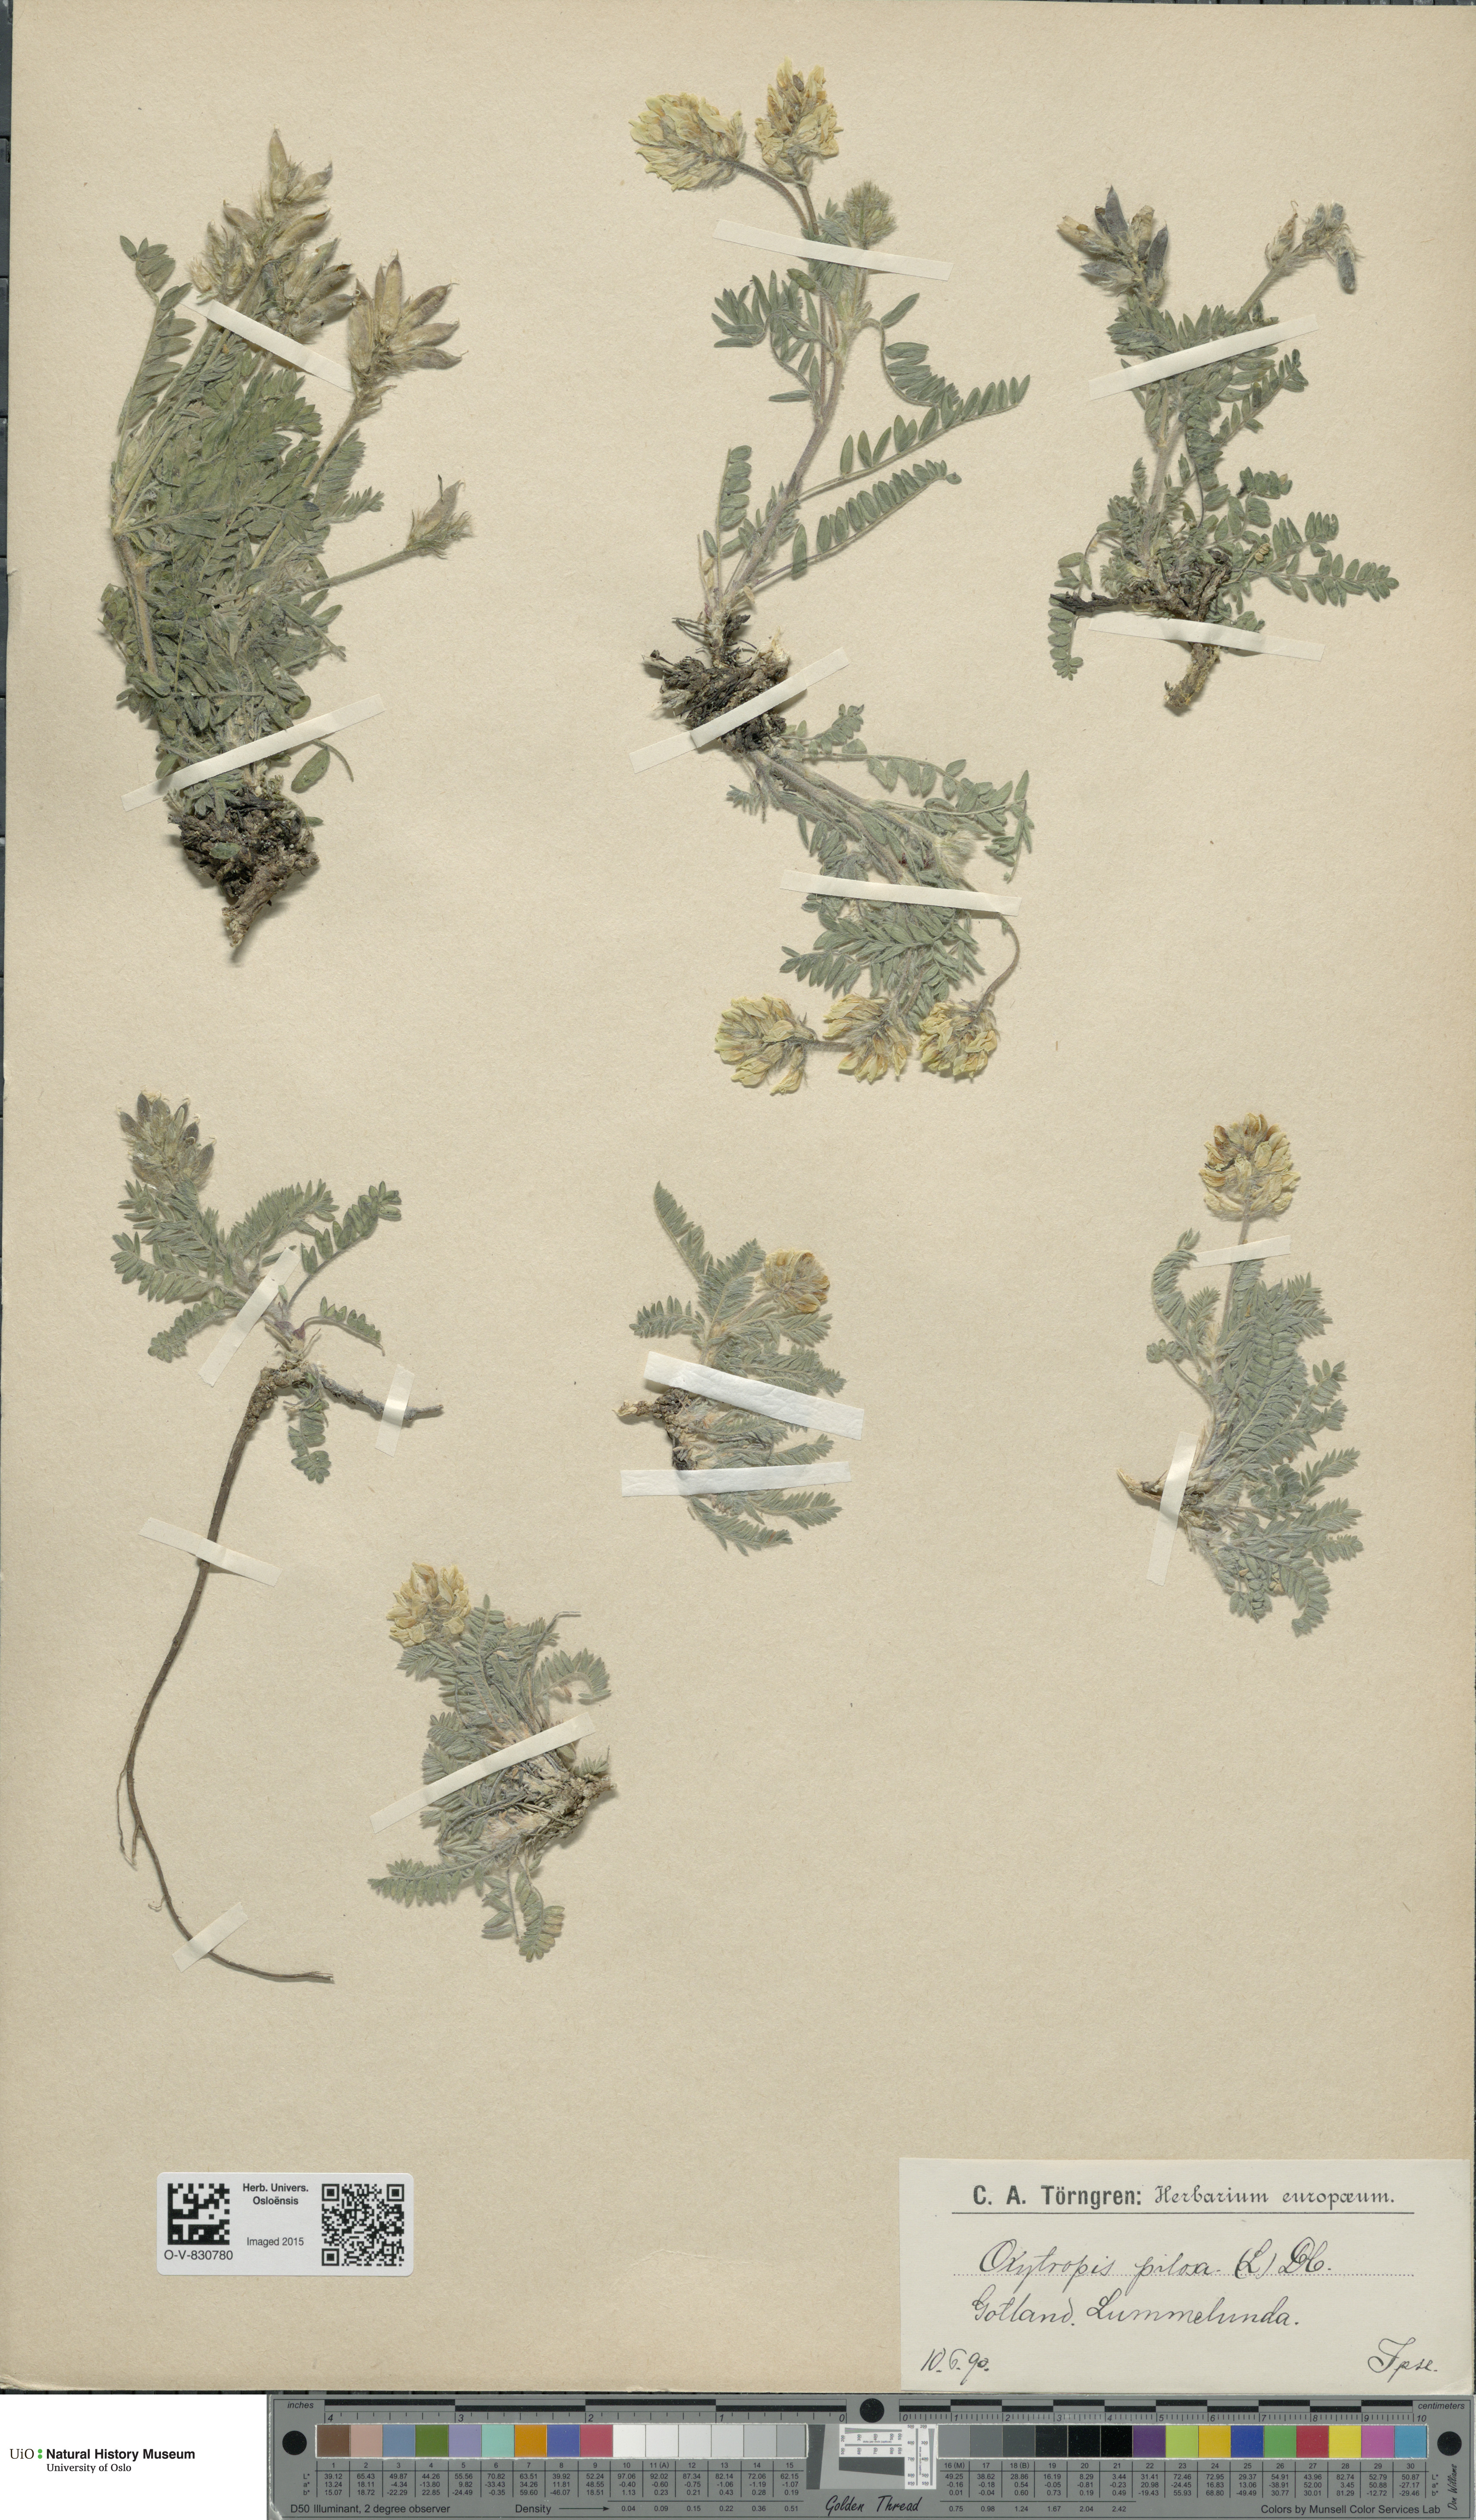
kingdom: Plantae
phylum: Tracheophyta
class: Magnoliopsida
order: Fabales
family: Fabaceae
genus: Oxytropis
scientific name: Oxytropis pilosa
